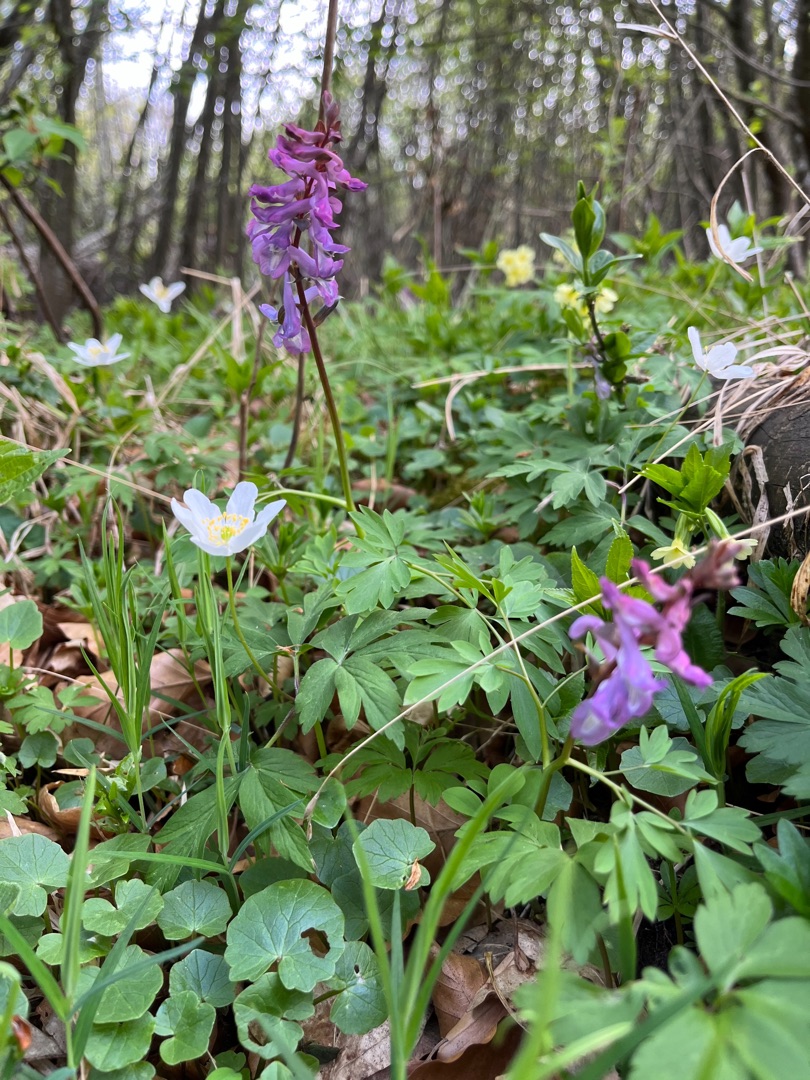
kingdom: Plantae
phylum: Tracheophyta
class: Magnoliopsida
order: Ranunculales
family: Papaveraceae
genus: Corydalis
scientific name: Corydalis cava
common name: Hulrodet lærkespore
